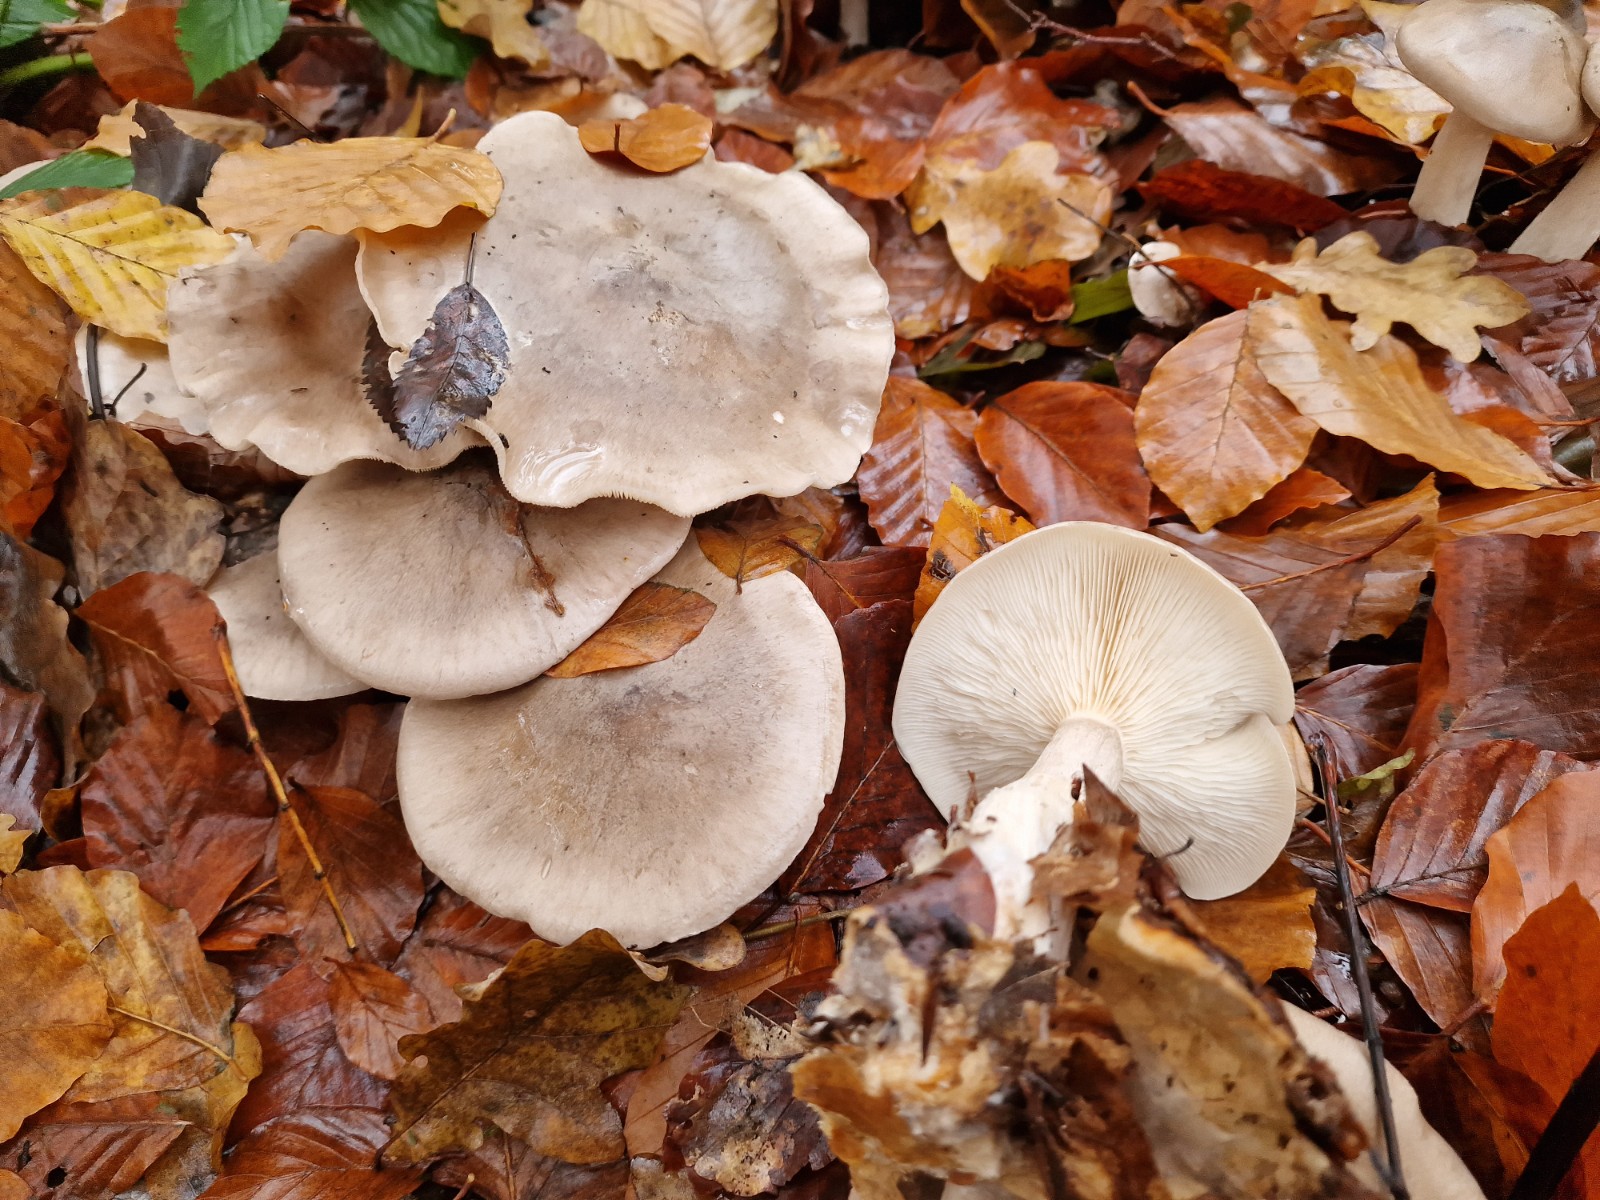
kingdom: Fungi
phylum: Basidiomycota
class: Agaricomycetes
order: Agaricales
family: Tricholomataceae
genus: Clitocybe
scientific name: Clitocybe nebularis
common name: tåge-tragthat
